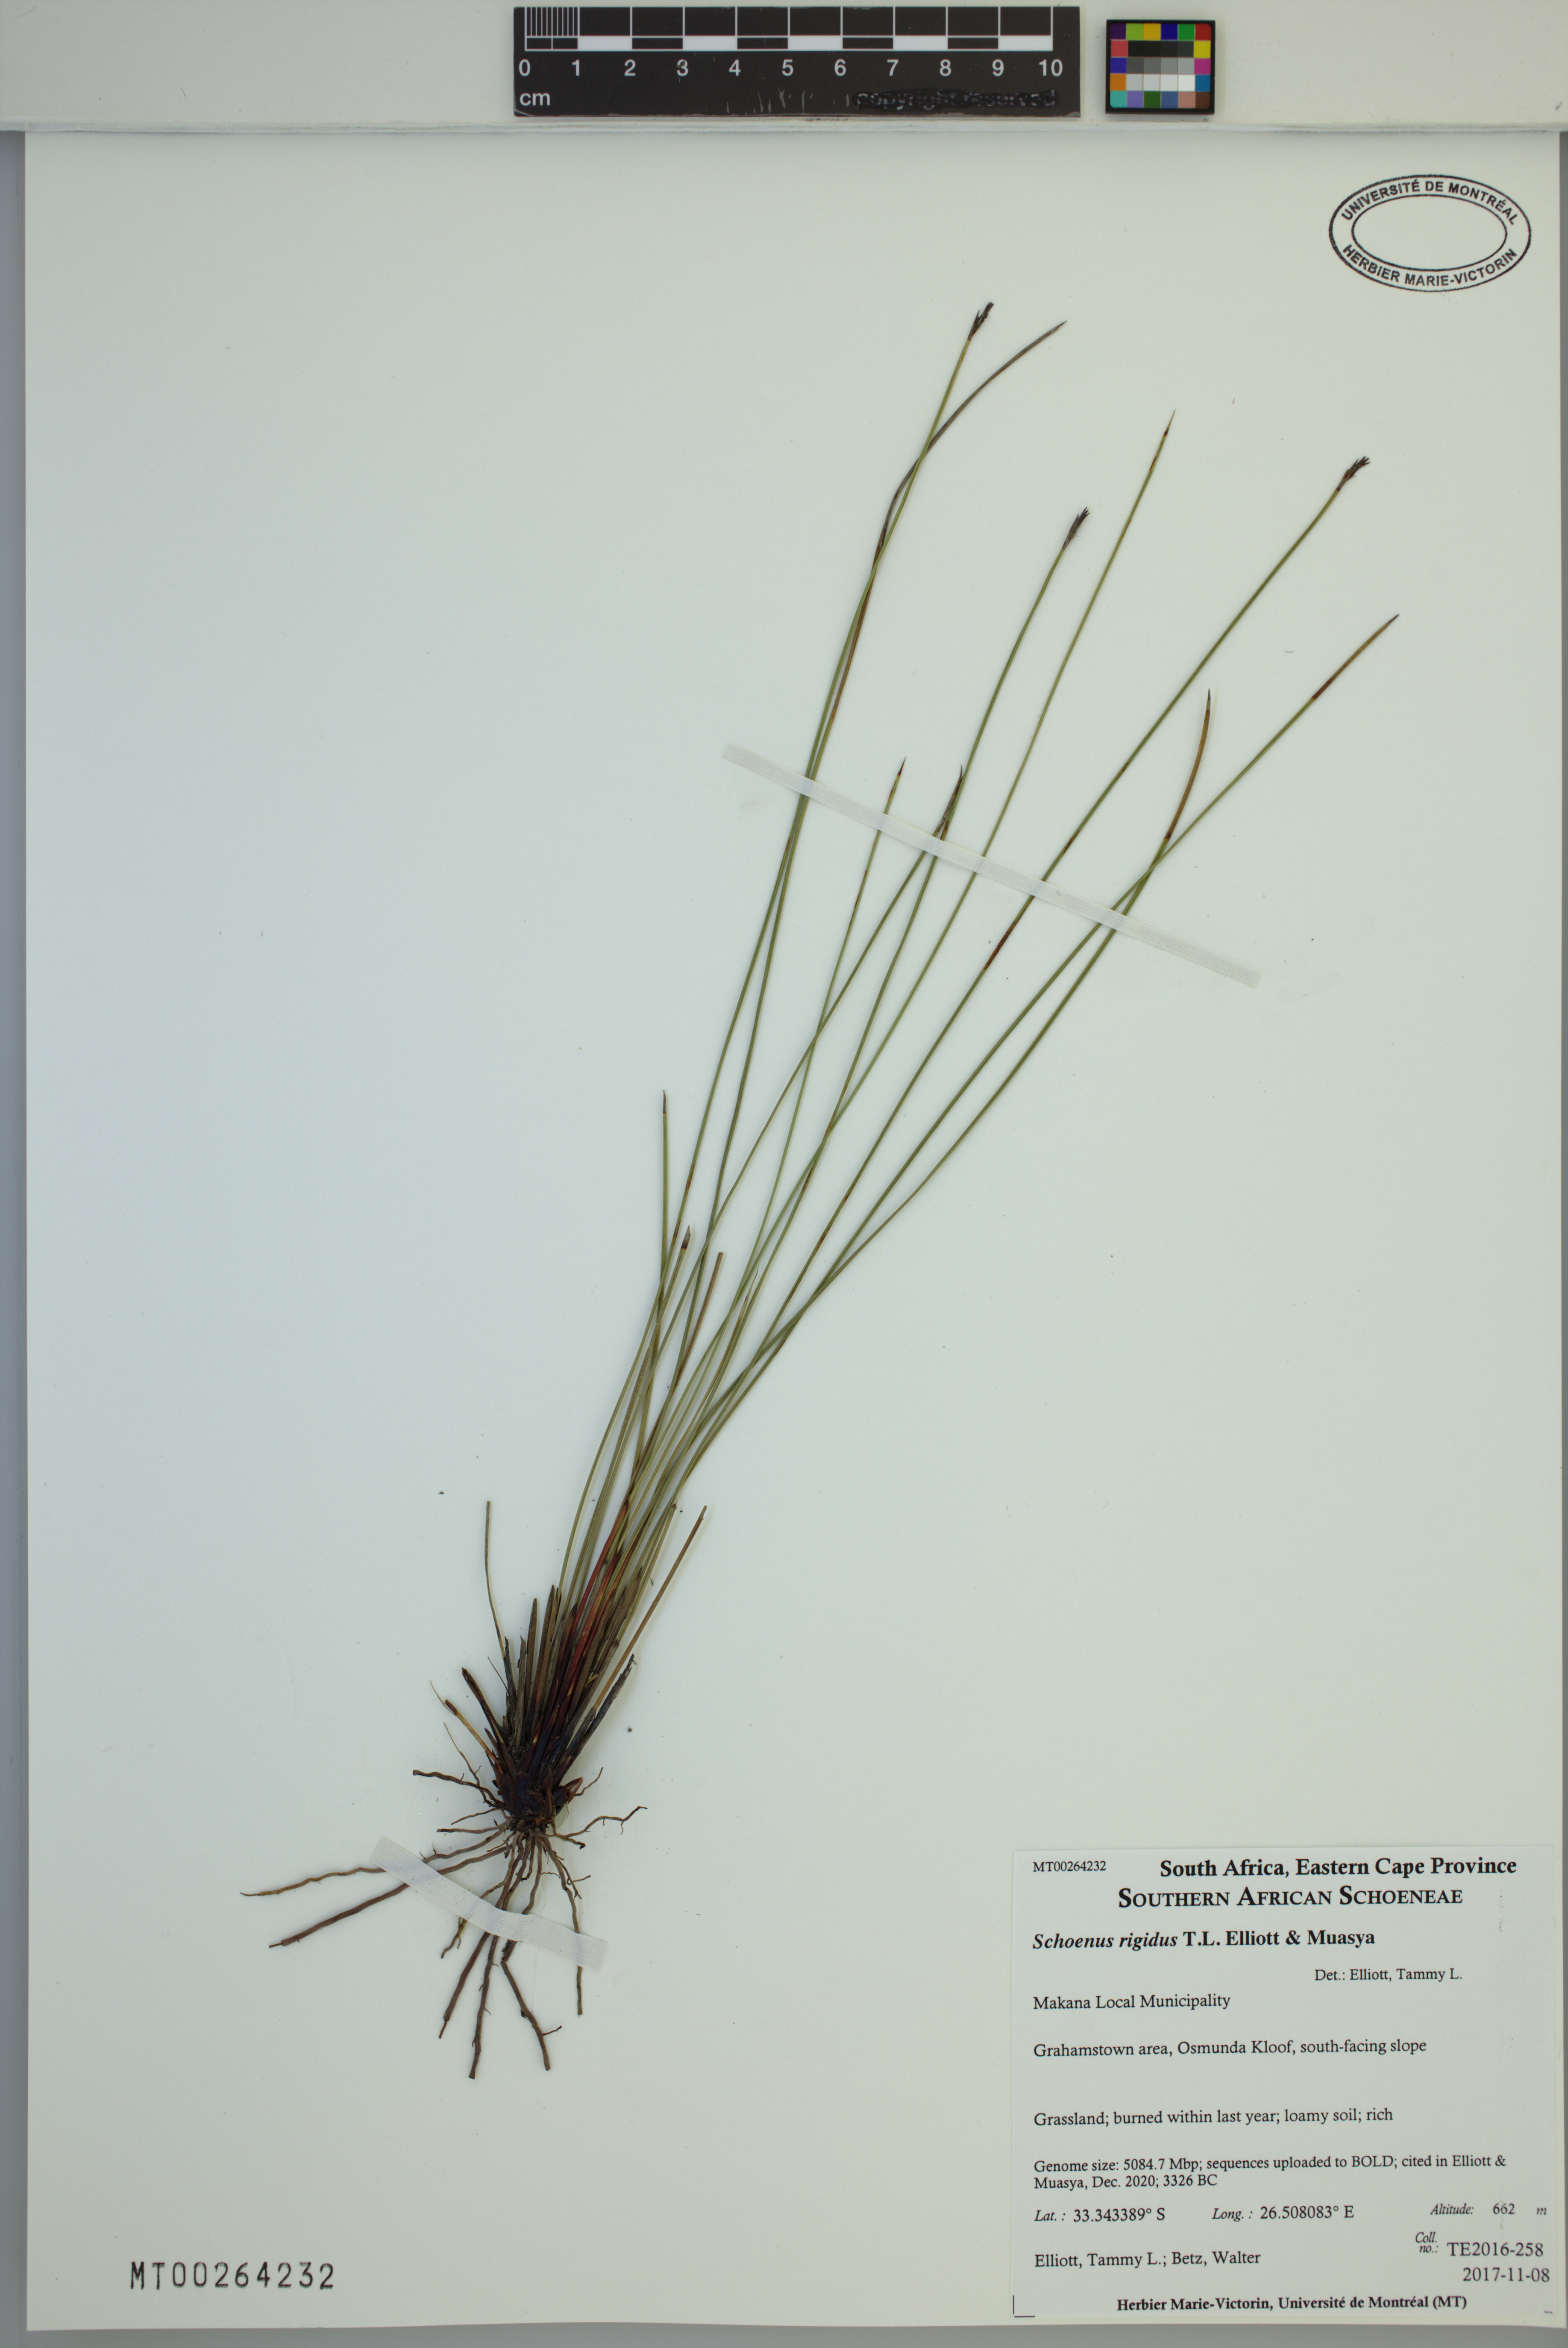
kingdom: Plantae
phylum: Tracheophyta
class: Liliopsida
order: Poales
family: Cyperaceae
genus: Schoenus
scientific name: Schoenus rigidus
